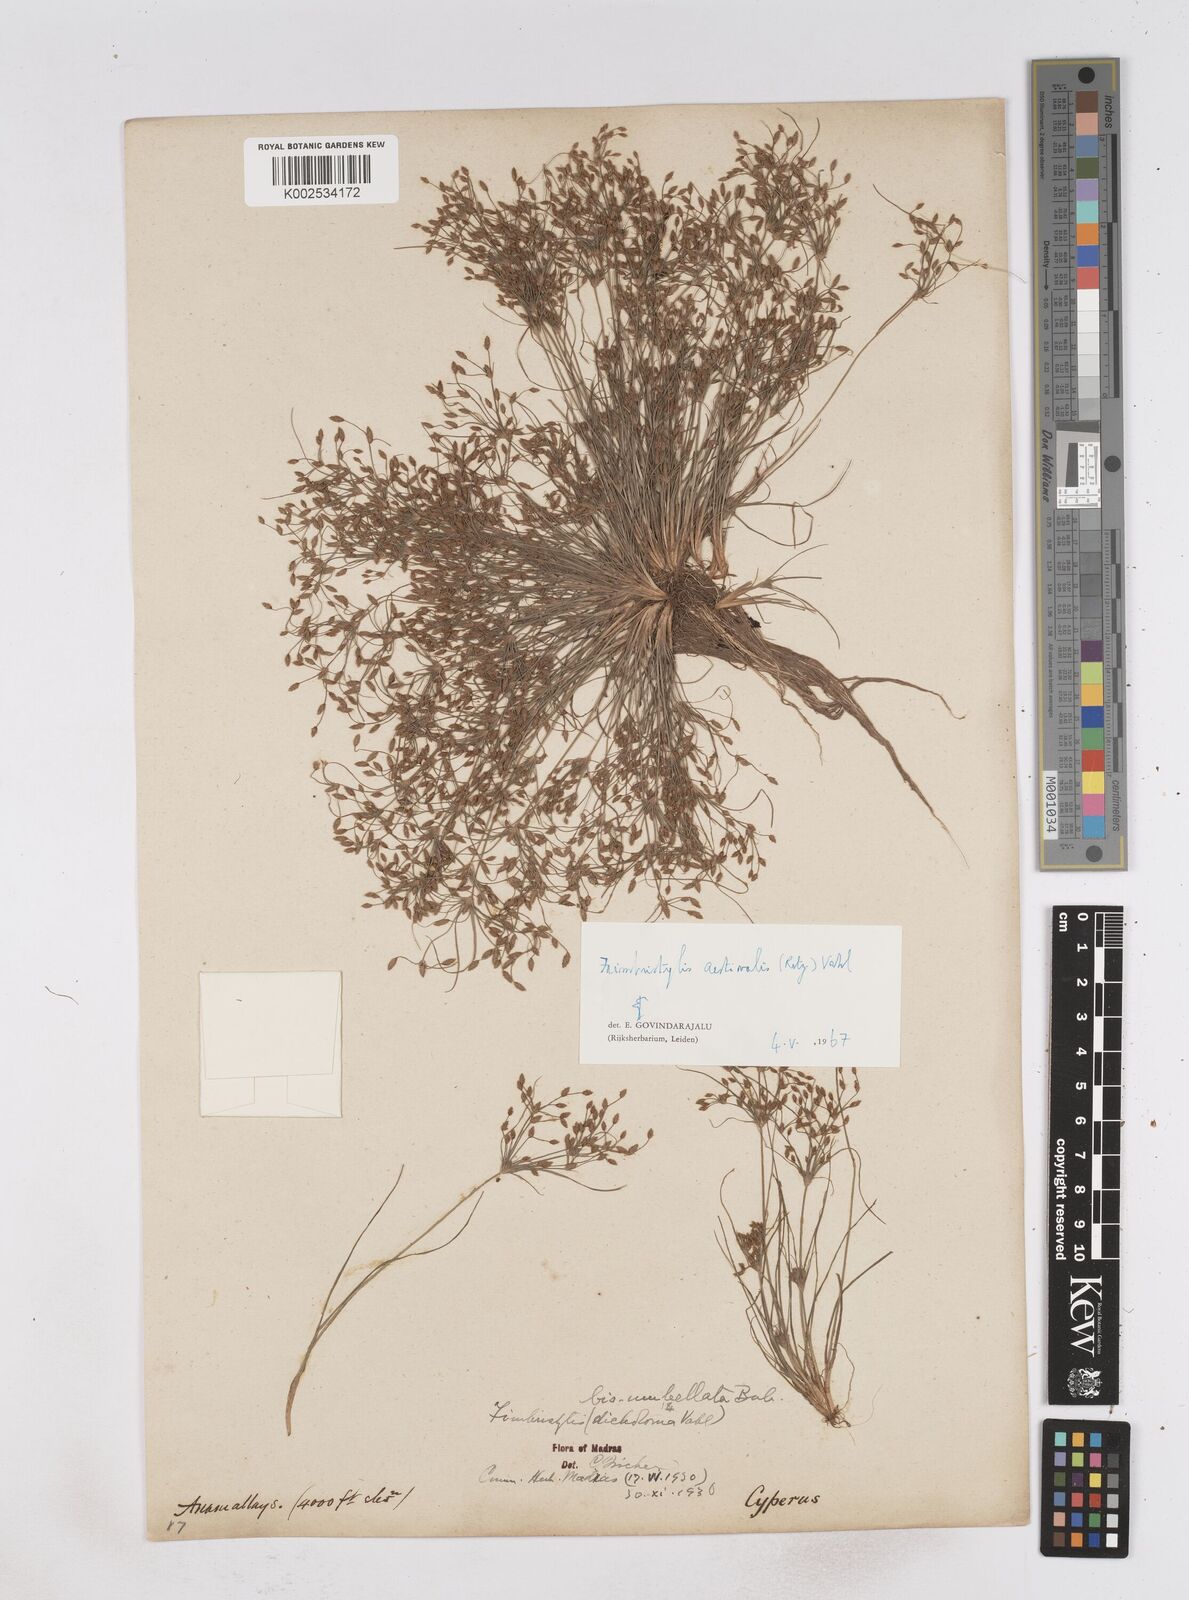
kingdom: Plantae
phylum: Tracheophyta
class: Liliopsida
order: Poales
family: Cyperaceae
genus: Fimbristylis
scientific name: Fimbristylis aestivalis
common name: Summer fimbry
